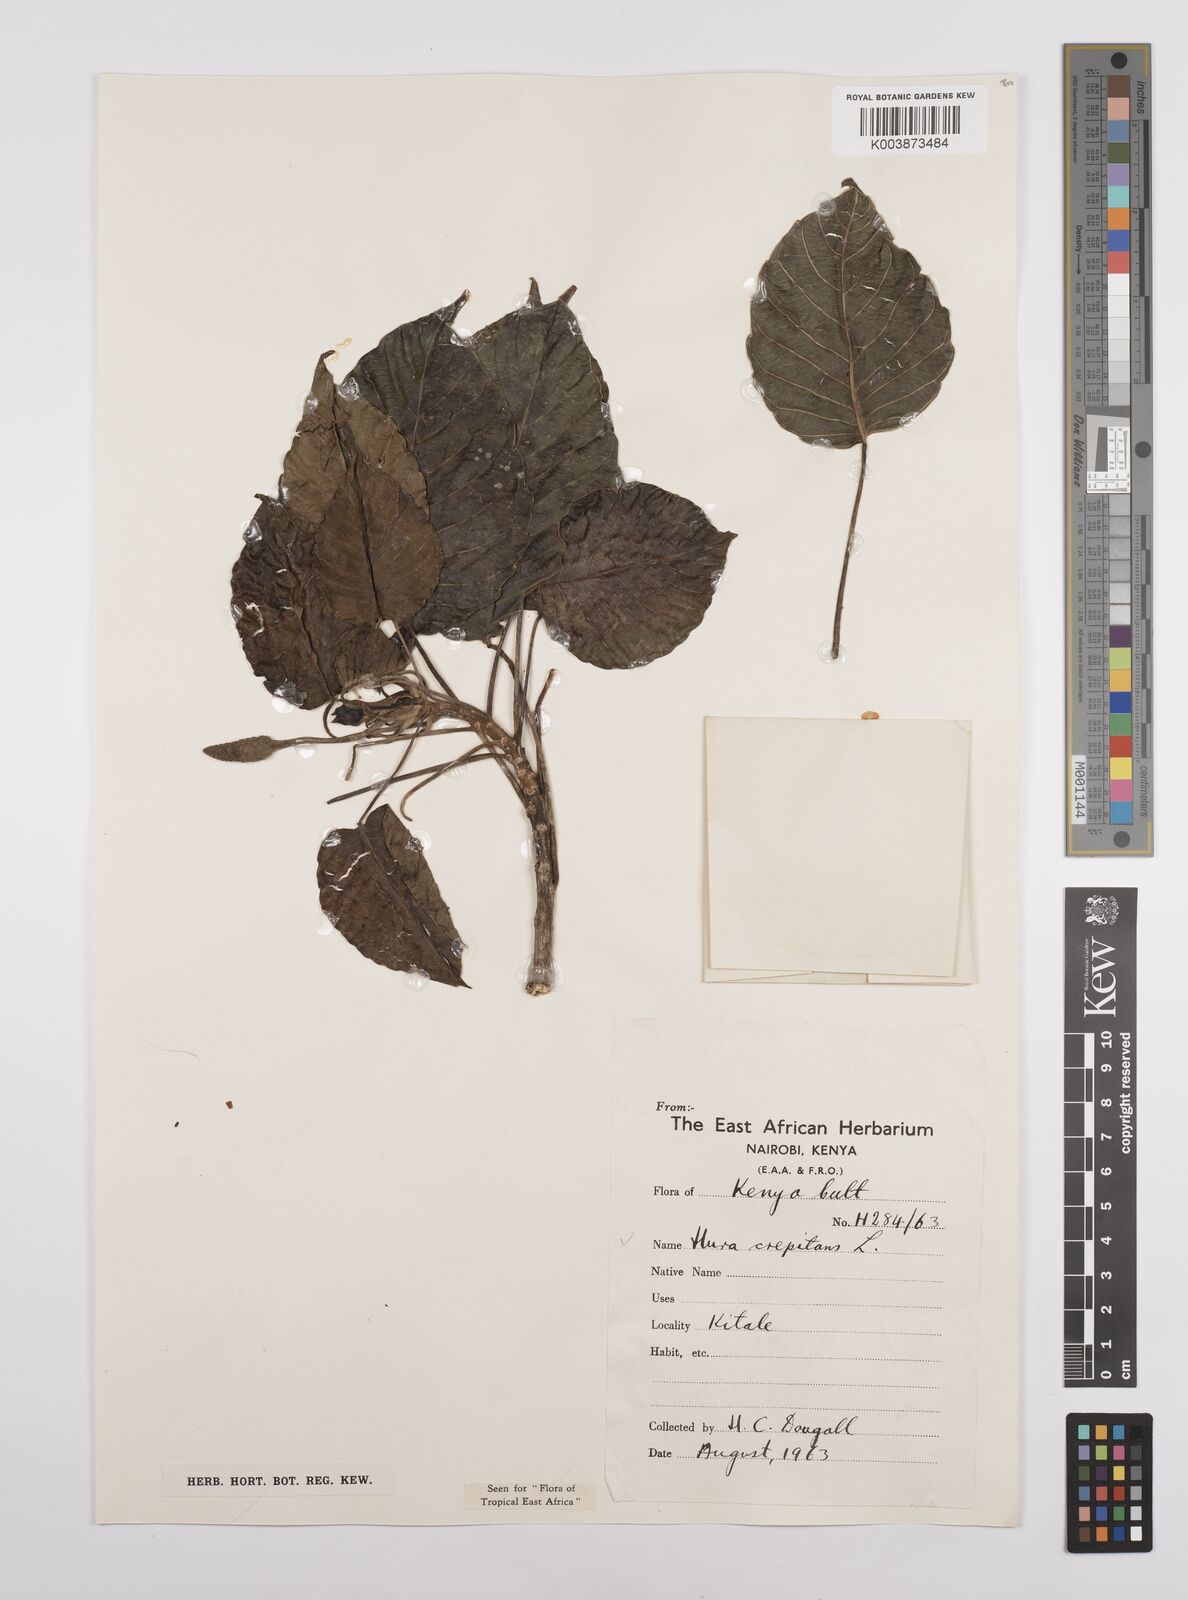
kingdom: Plantae
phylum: Tracheophyta
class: Magnoliopsida
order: Malpighiales
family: Euphorbiaceae
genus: Hura
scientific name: Hura crepitans
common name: Sandboxtree
